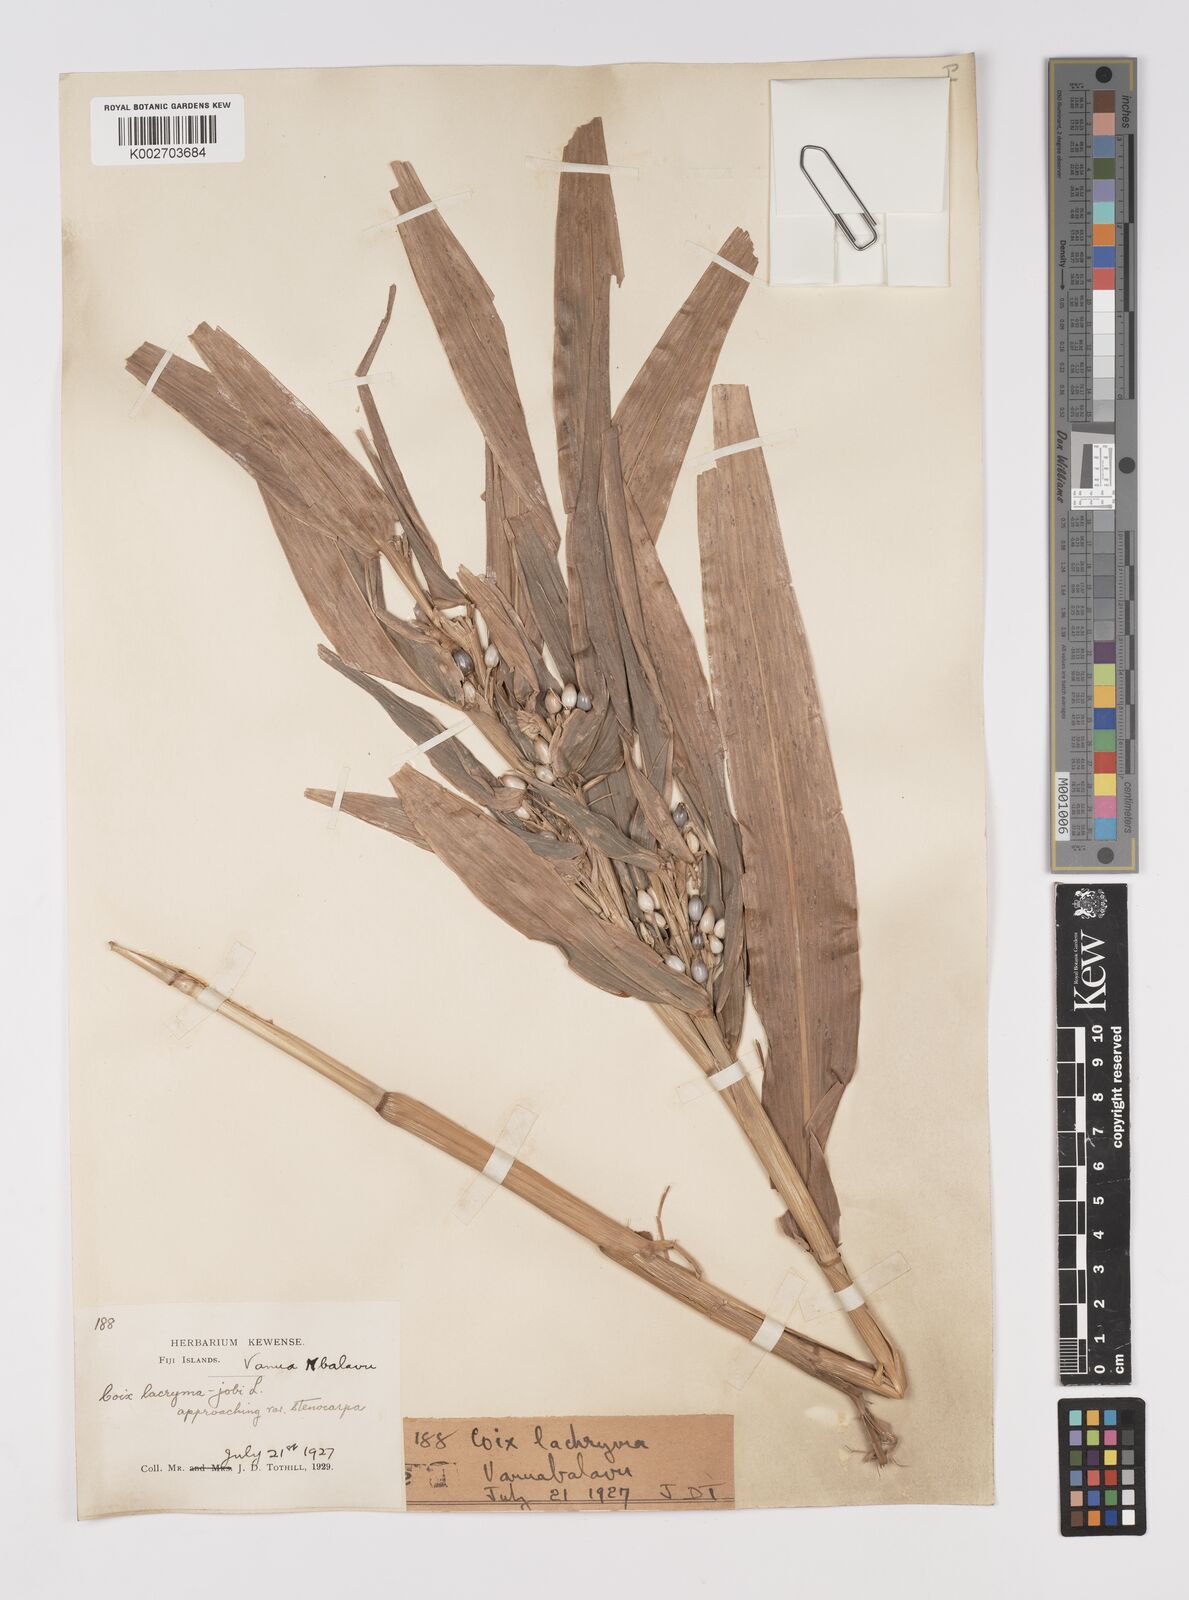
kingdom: Plantae
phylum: Tracheophyta
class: Liliopsida
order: Poales
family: Poaceae
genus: Coix
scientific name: Coix lacryma-jobi
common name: Job's tears
